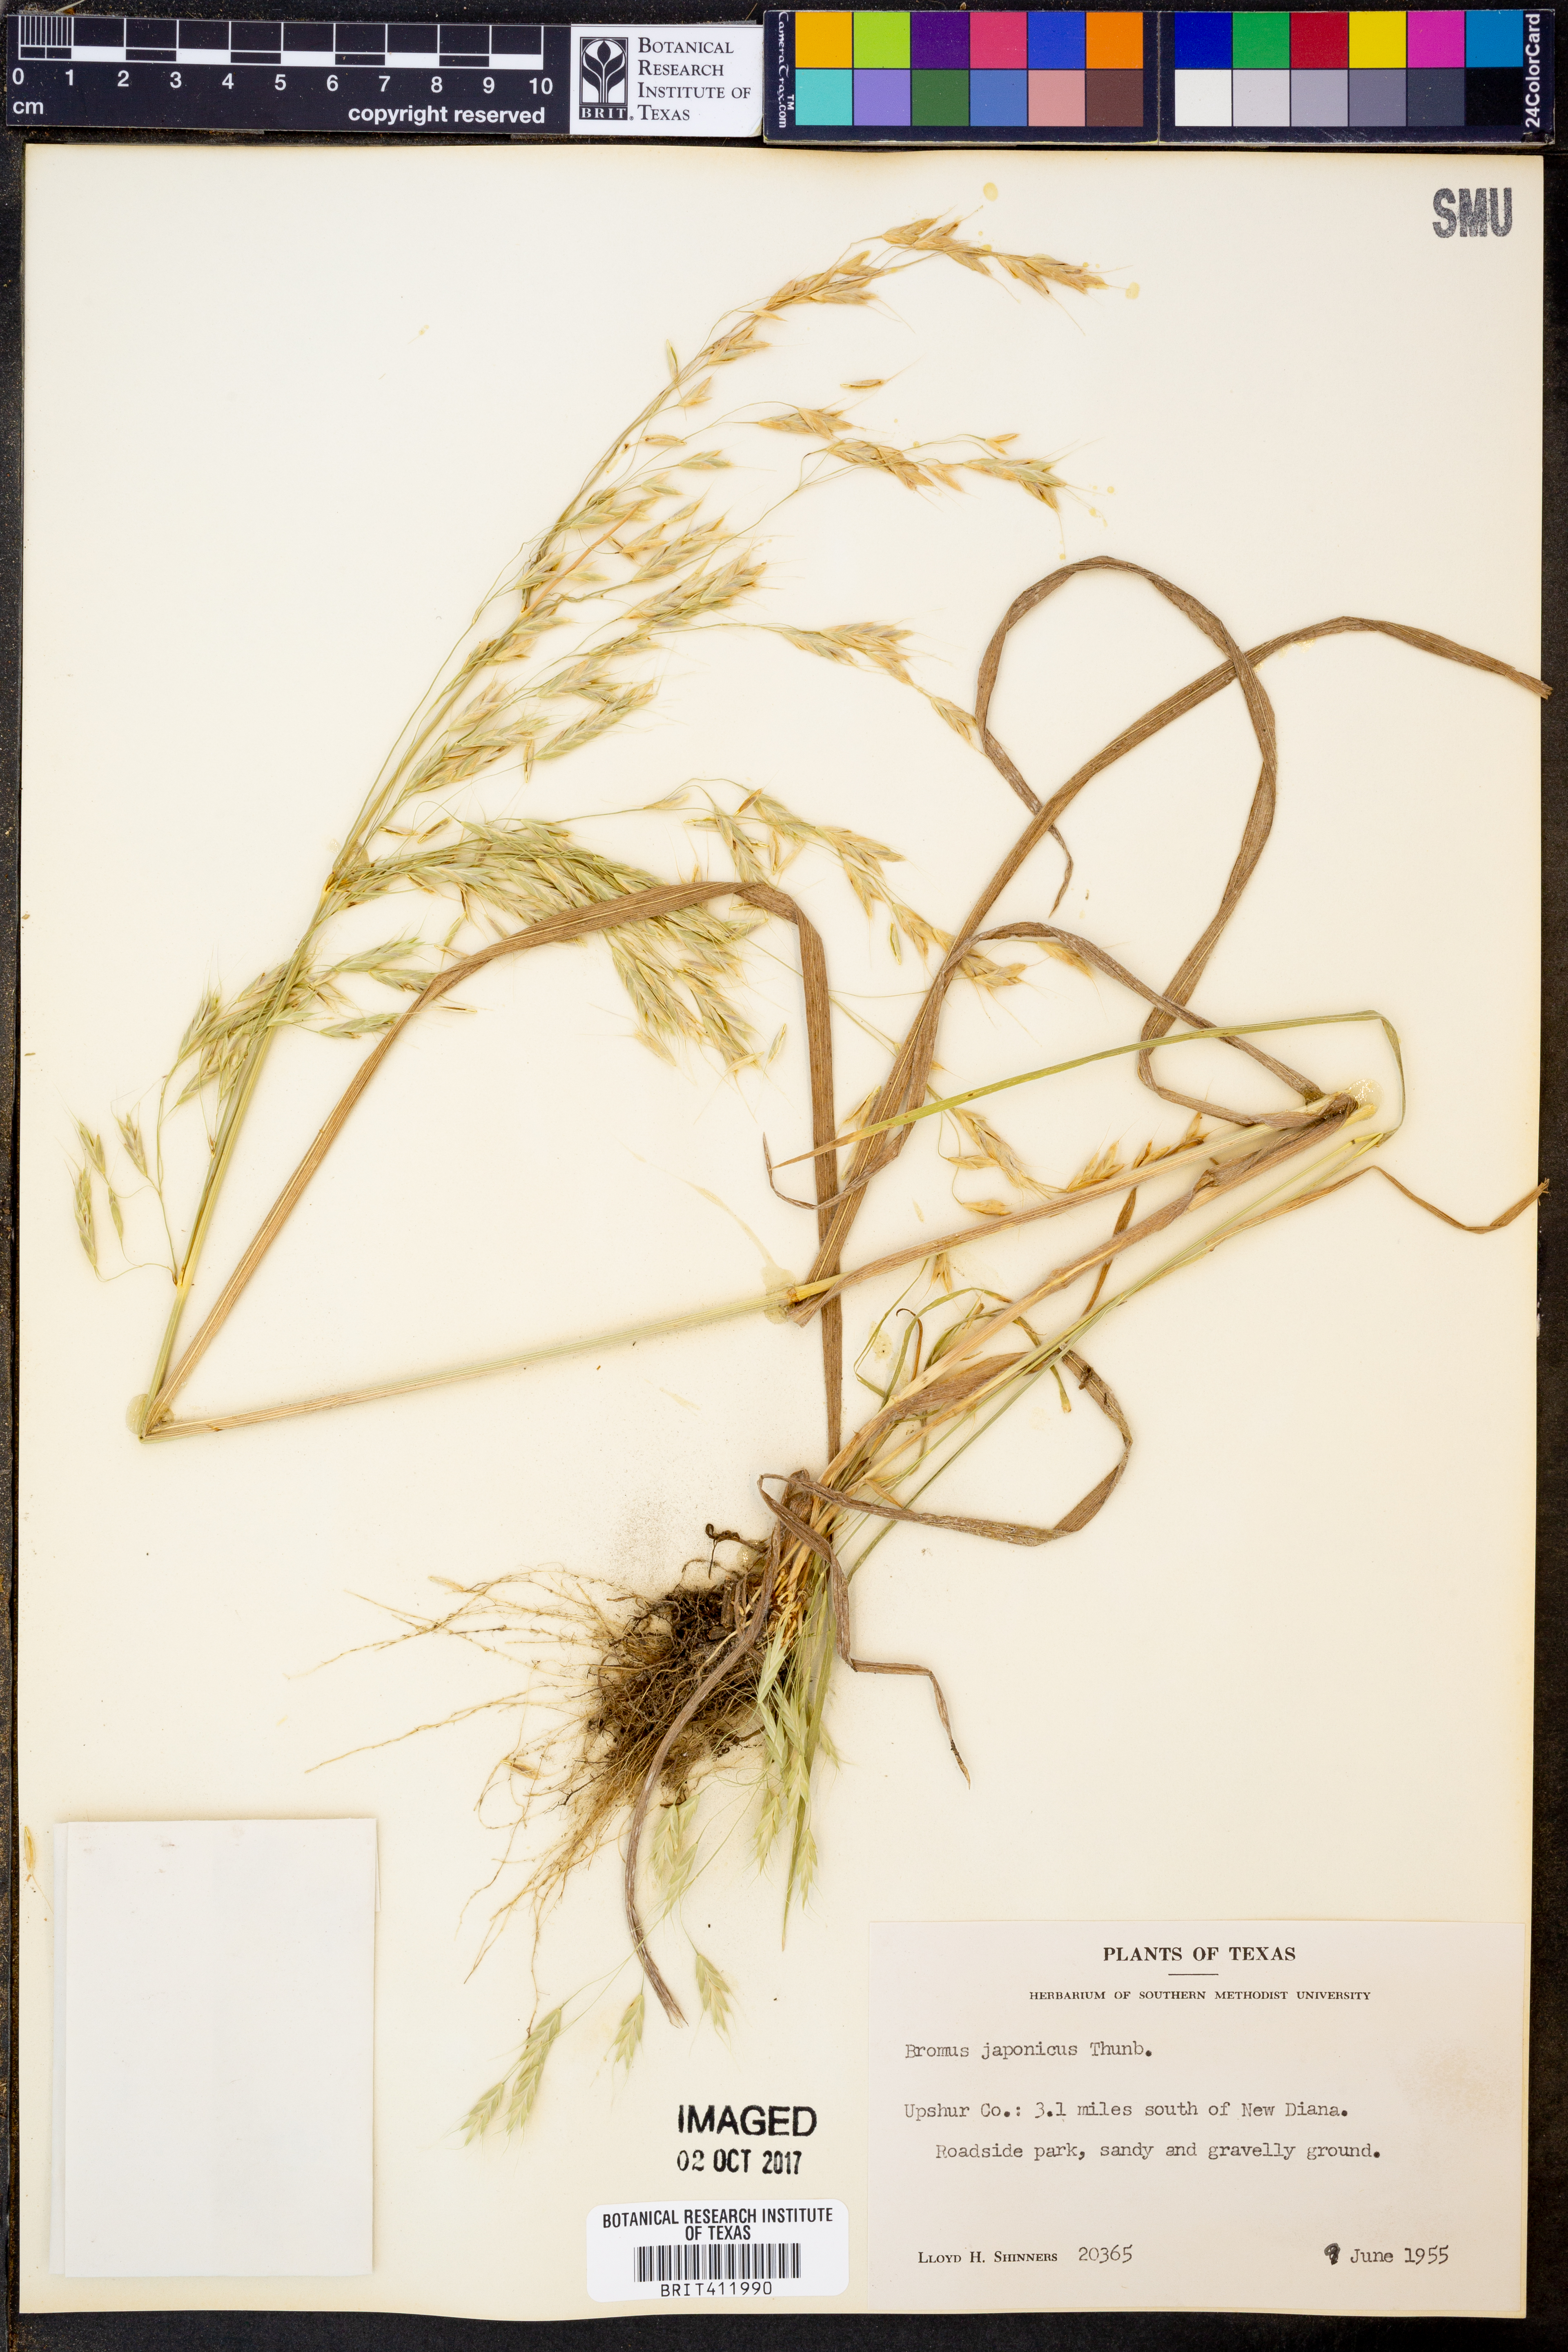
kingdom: Plantae
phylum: Tracheophyta
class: Liliopsida
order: Poales
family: Poaceae
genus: Bromus
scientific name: Bromus japonicus
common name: Japanese brome
